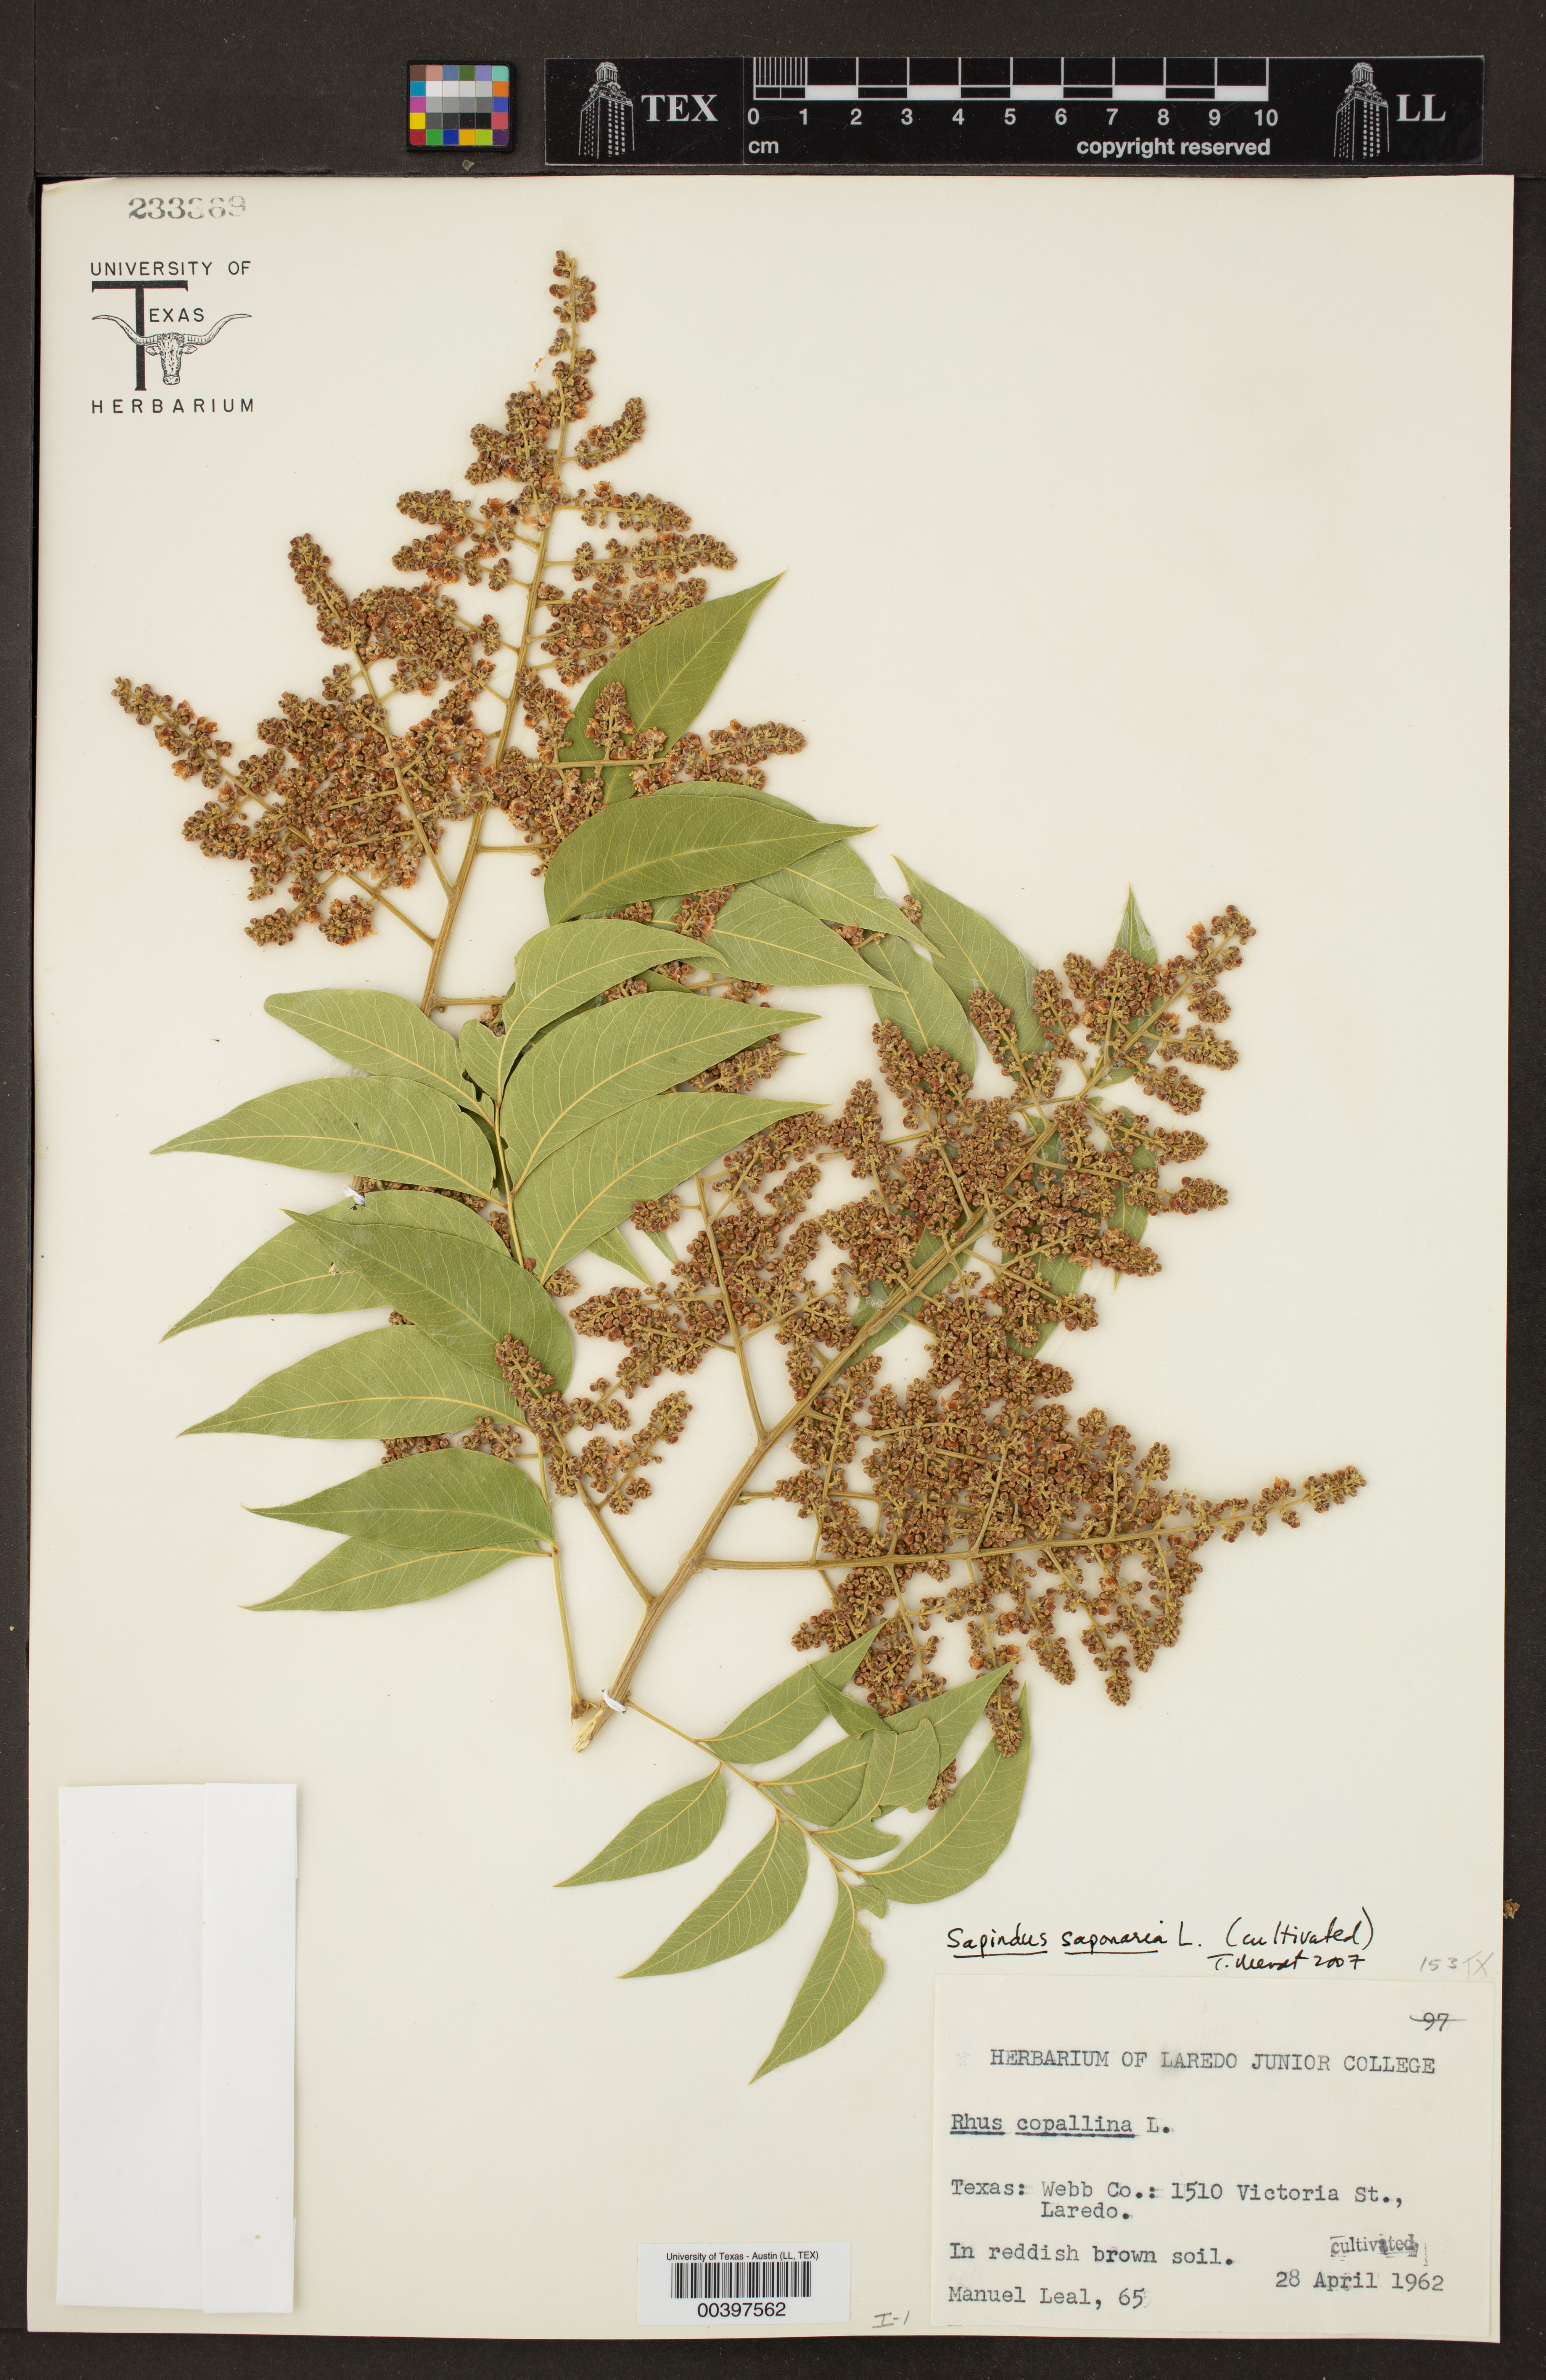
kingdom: Plantae
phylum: Tracheophyta
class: Magnoliopsida
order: Sapindales
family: Sapindaceae
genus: Sapindus
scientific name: Sapindus saponaria
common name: Wingleaf soapberry
